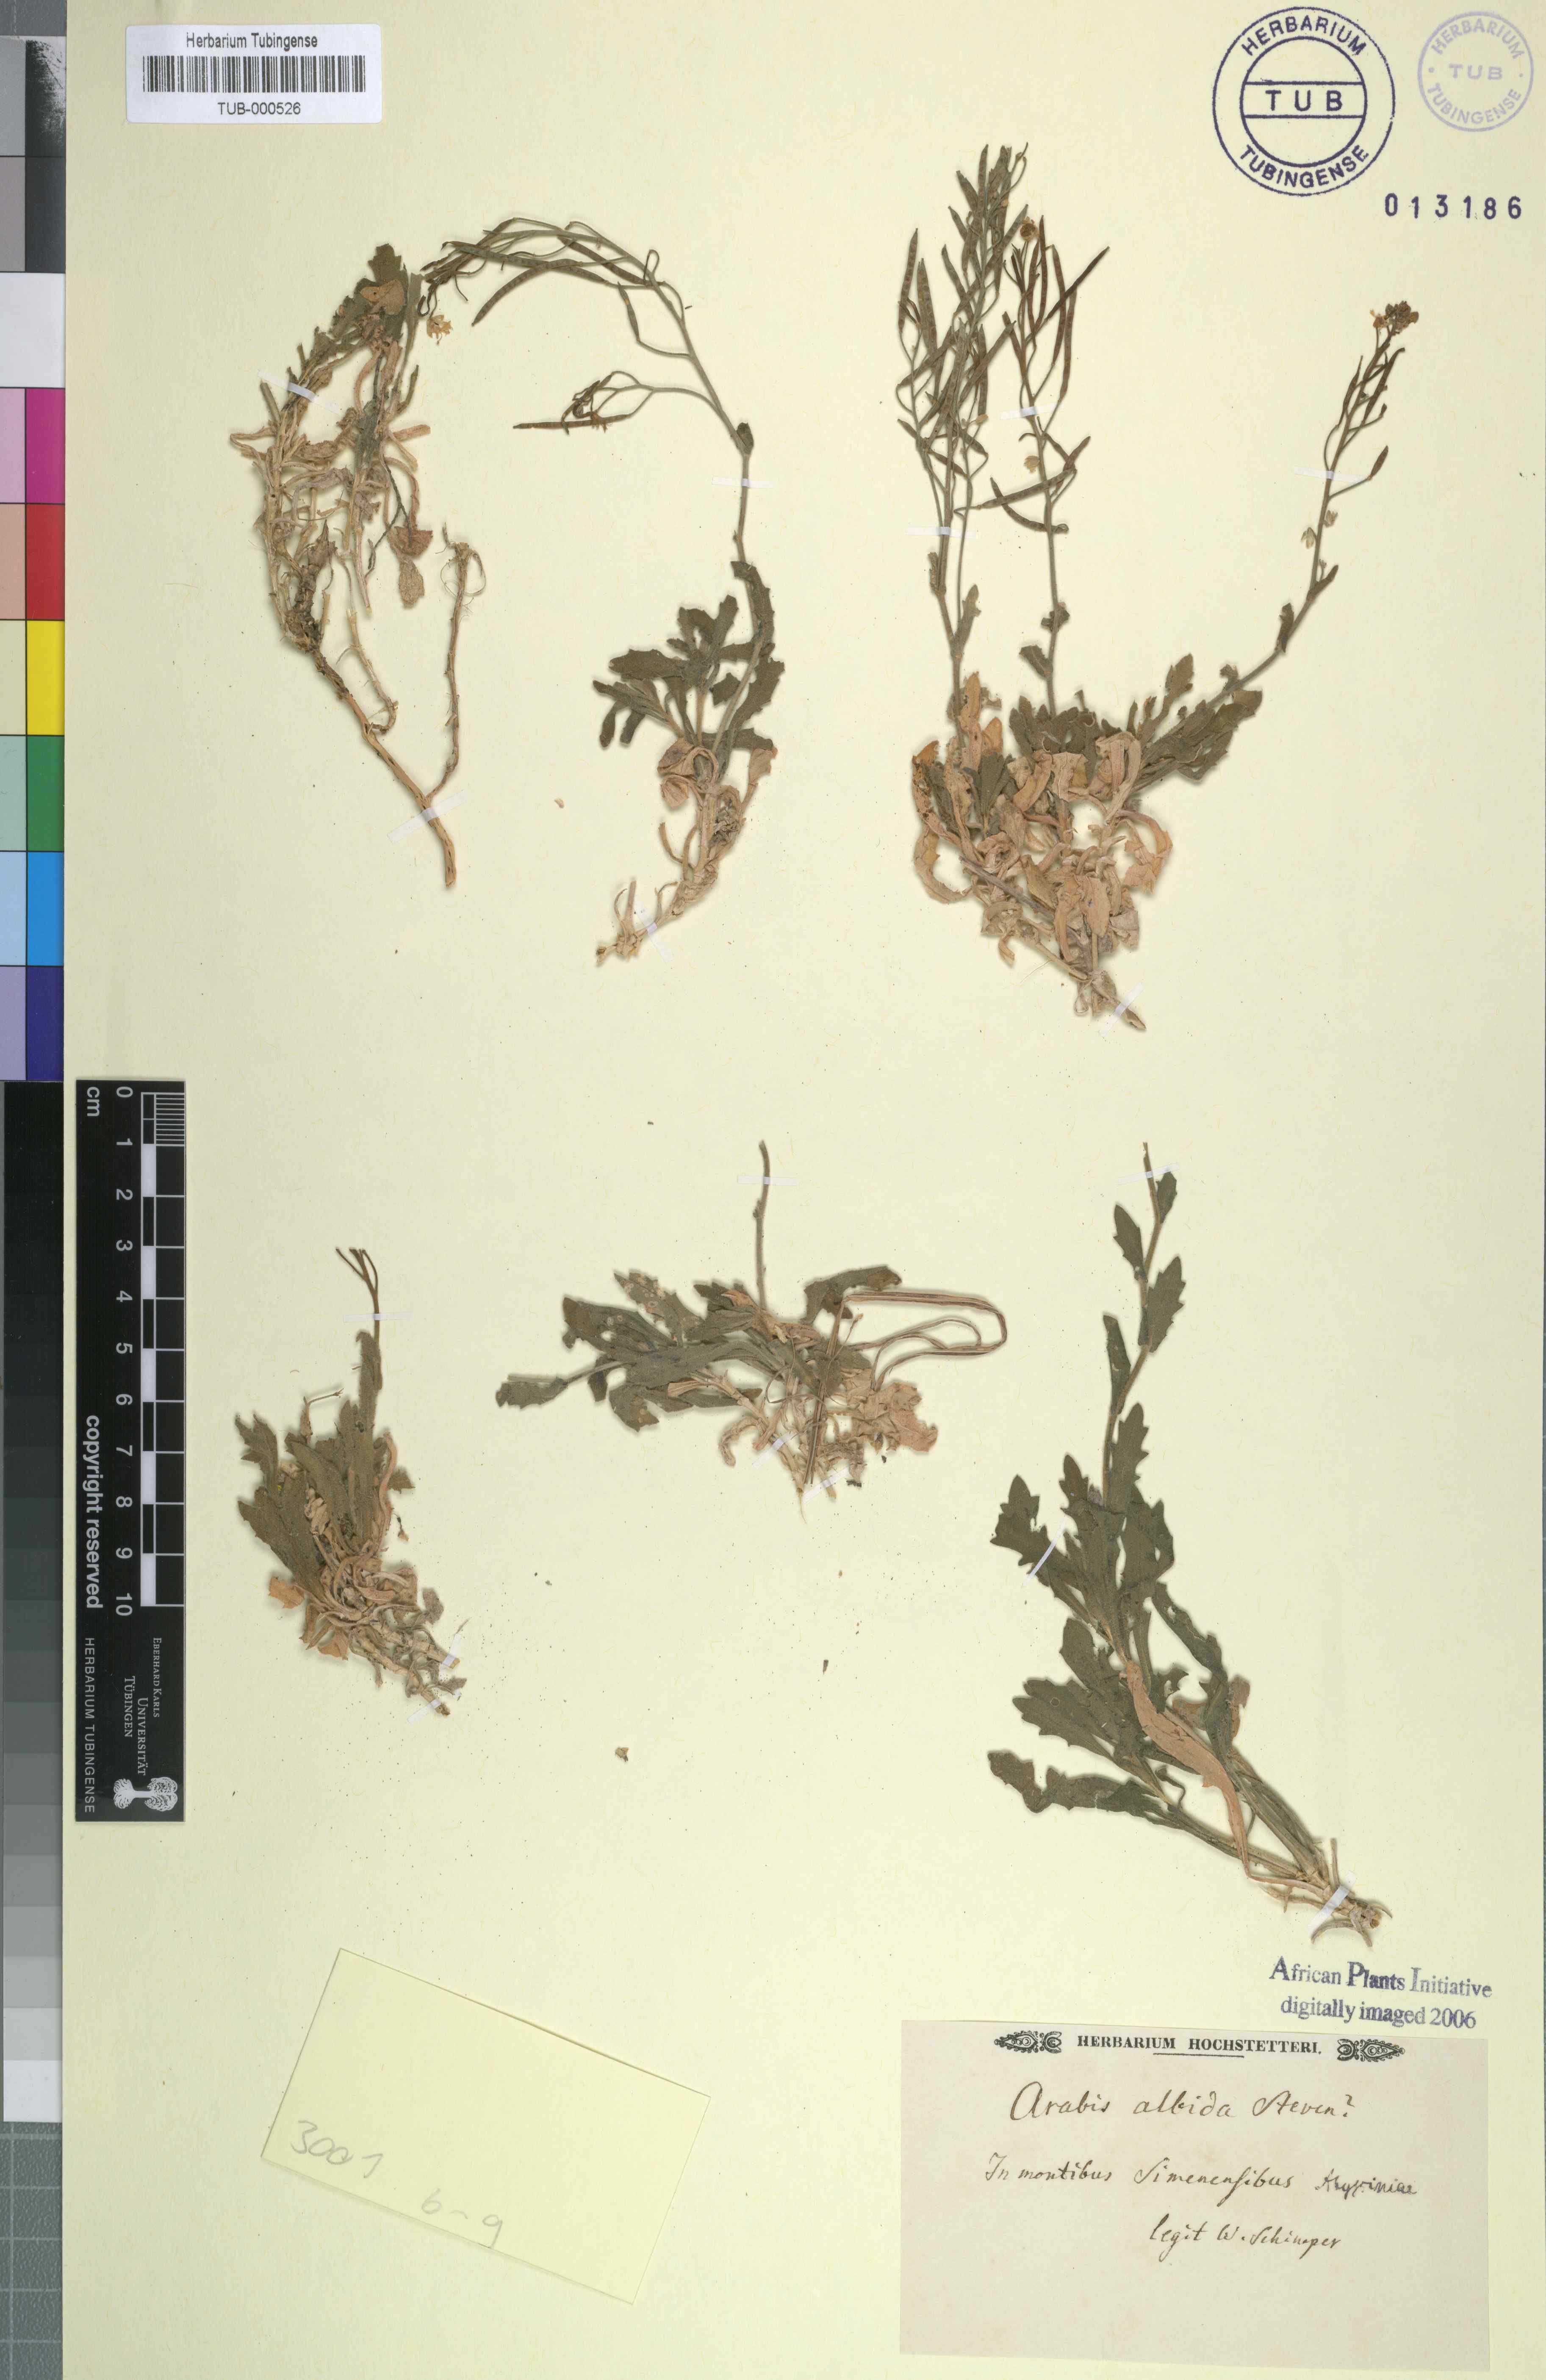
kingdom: Plantae
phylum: Tracheophyta
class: Magnoliopsida
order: Brassicales
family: Brassicaceae
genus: Arabis
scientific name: Arabis caucasica
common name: Gray rockcress
